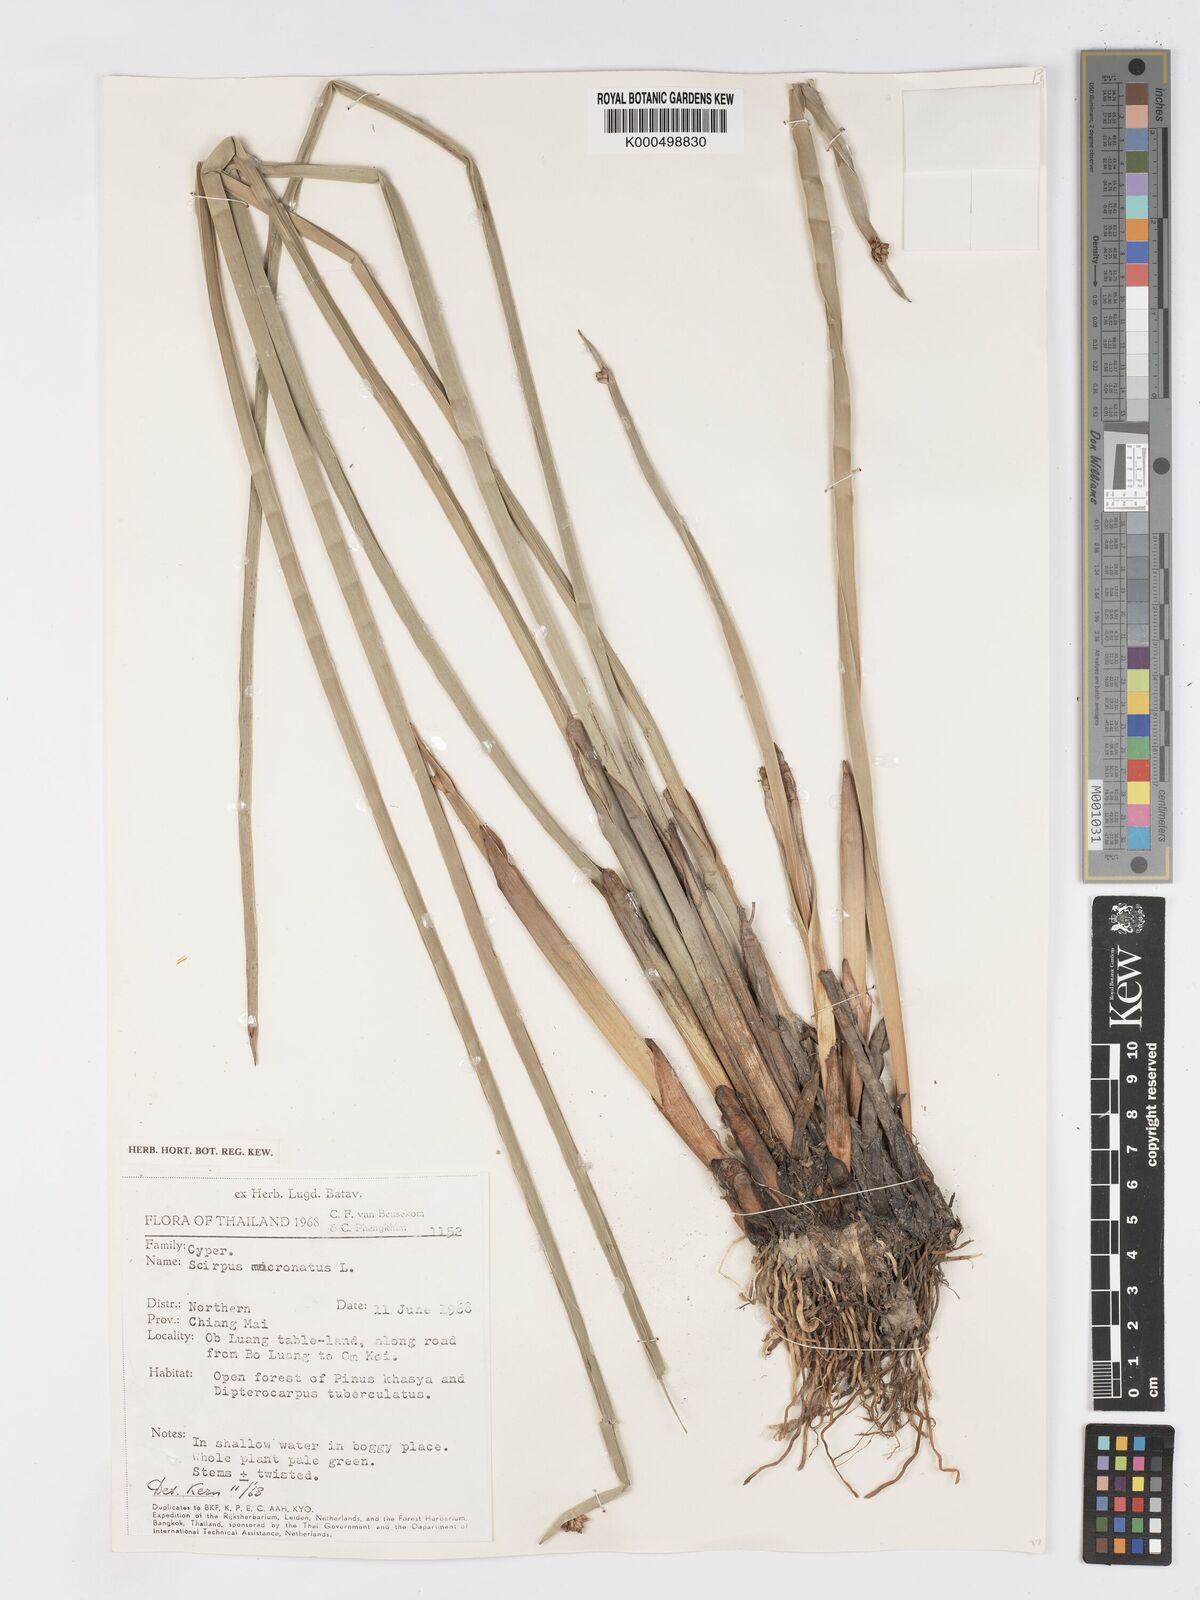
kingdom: Plantae
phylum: Tracheophyta
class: Liliopsida
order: Poales
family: Cyperaceae
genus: Schoenoplectiella
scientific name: Schoenoplectiella mucronata
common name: Bog bulrush
